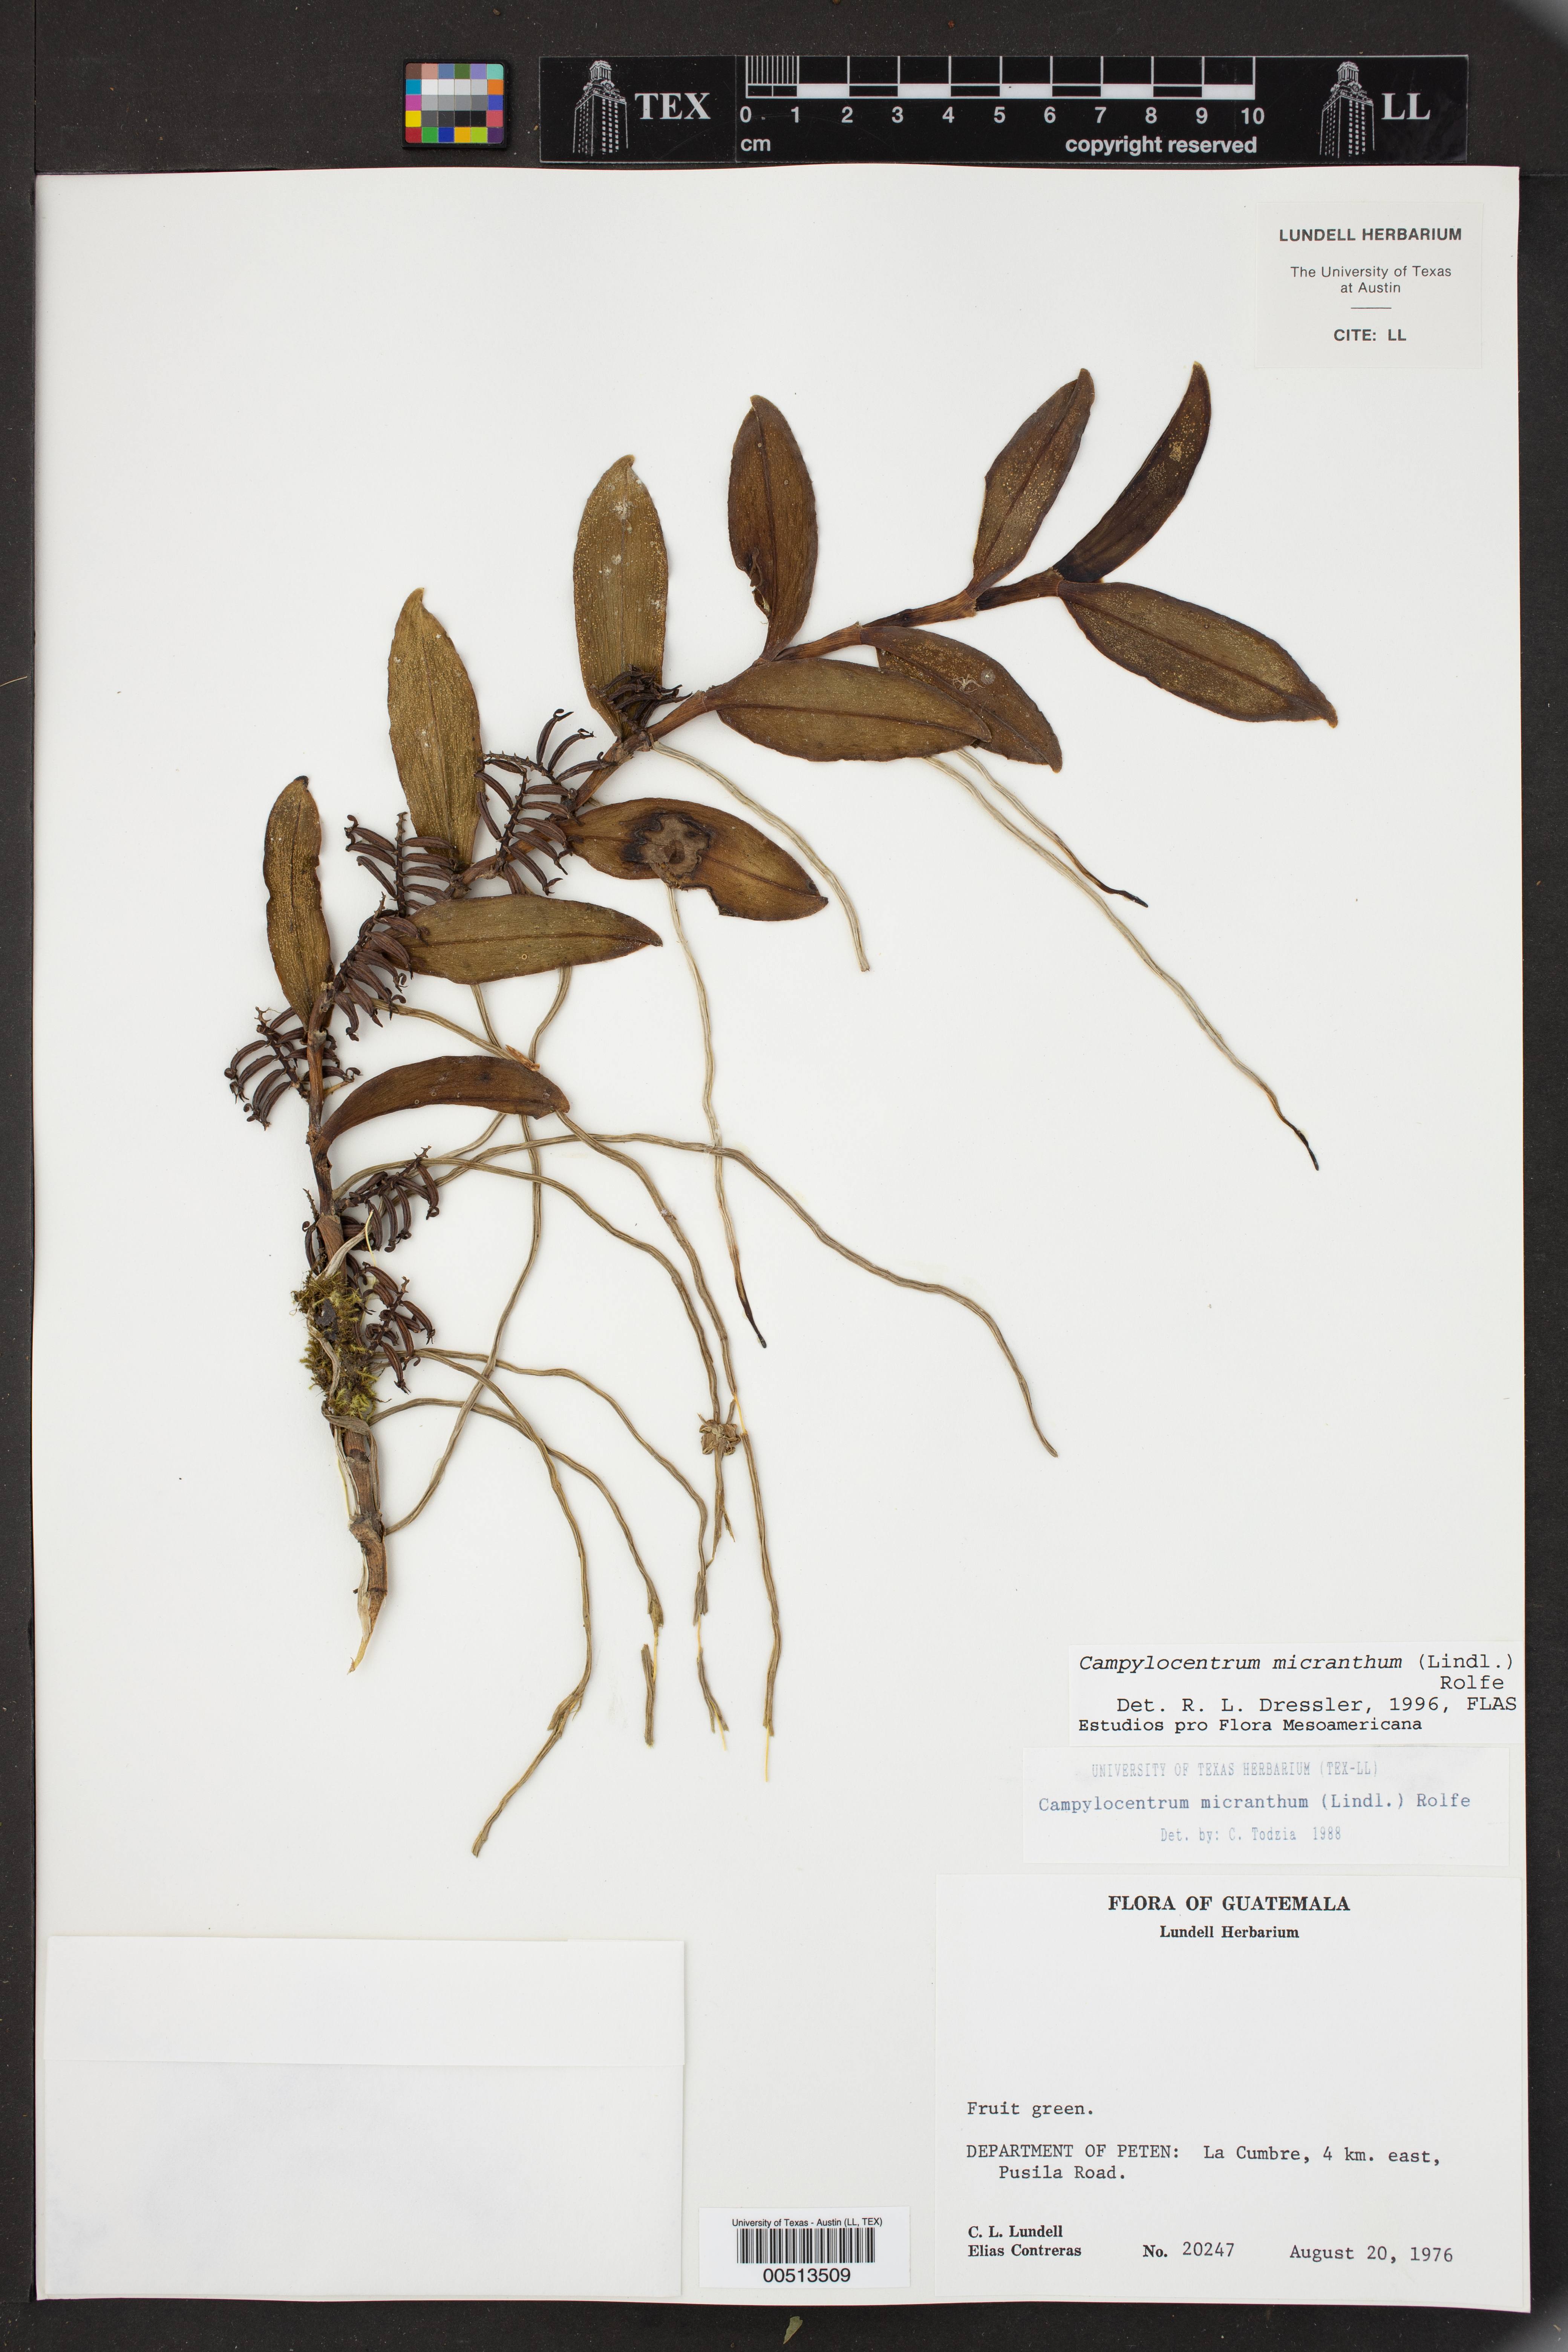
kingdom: Plantae
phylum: Tracheophyta
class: Liliopsida
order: Asparagales
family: Orchidaceae
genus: Campylocentrum
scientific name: Campylocentrum micranthum
